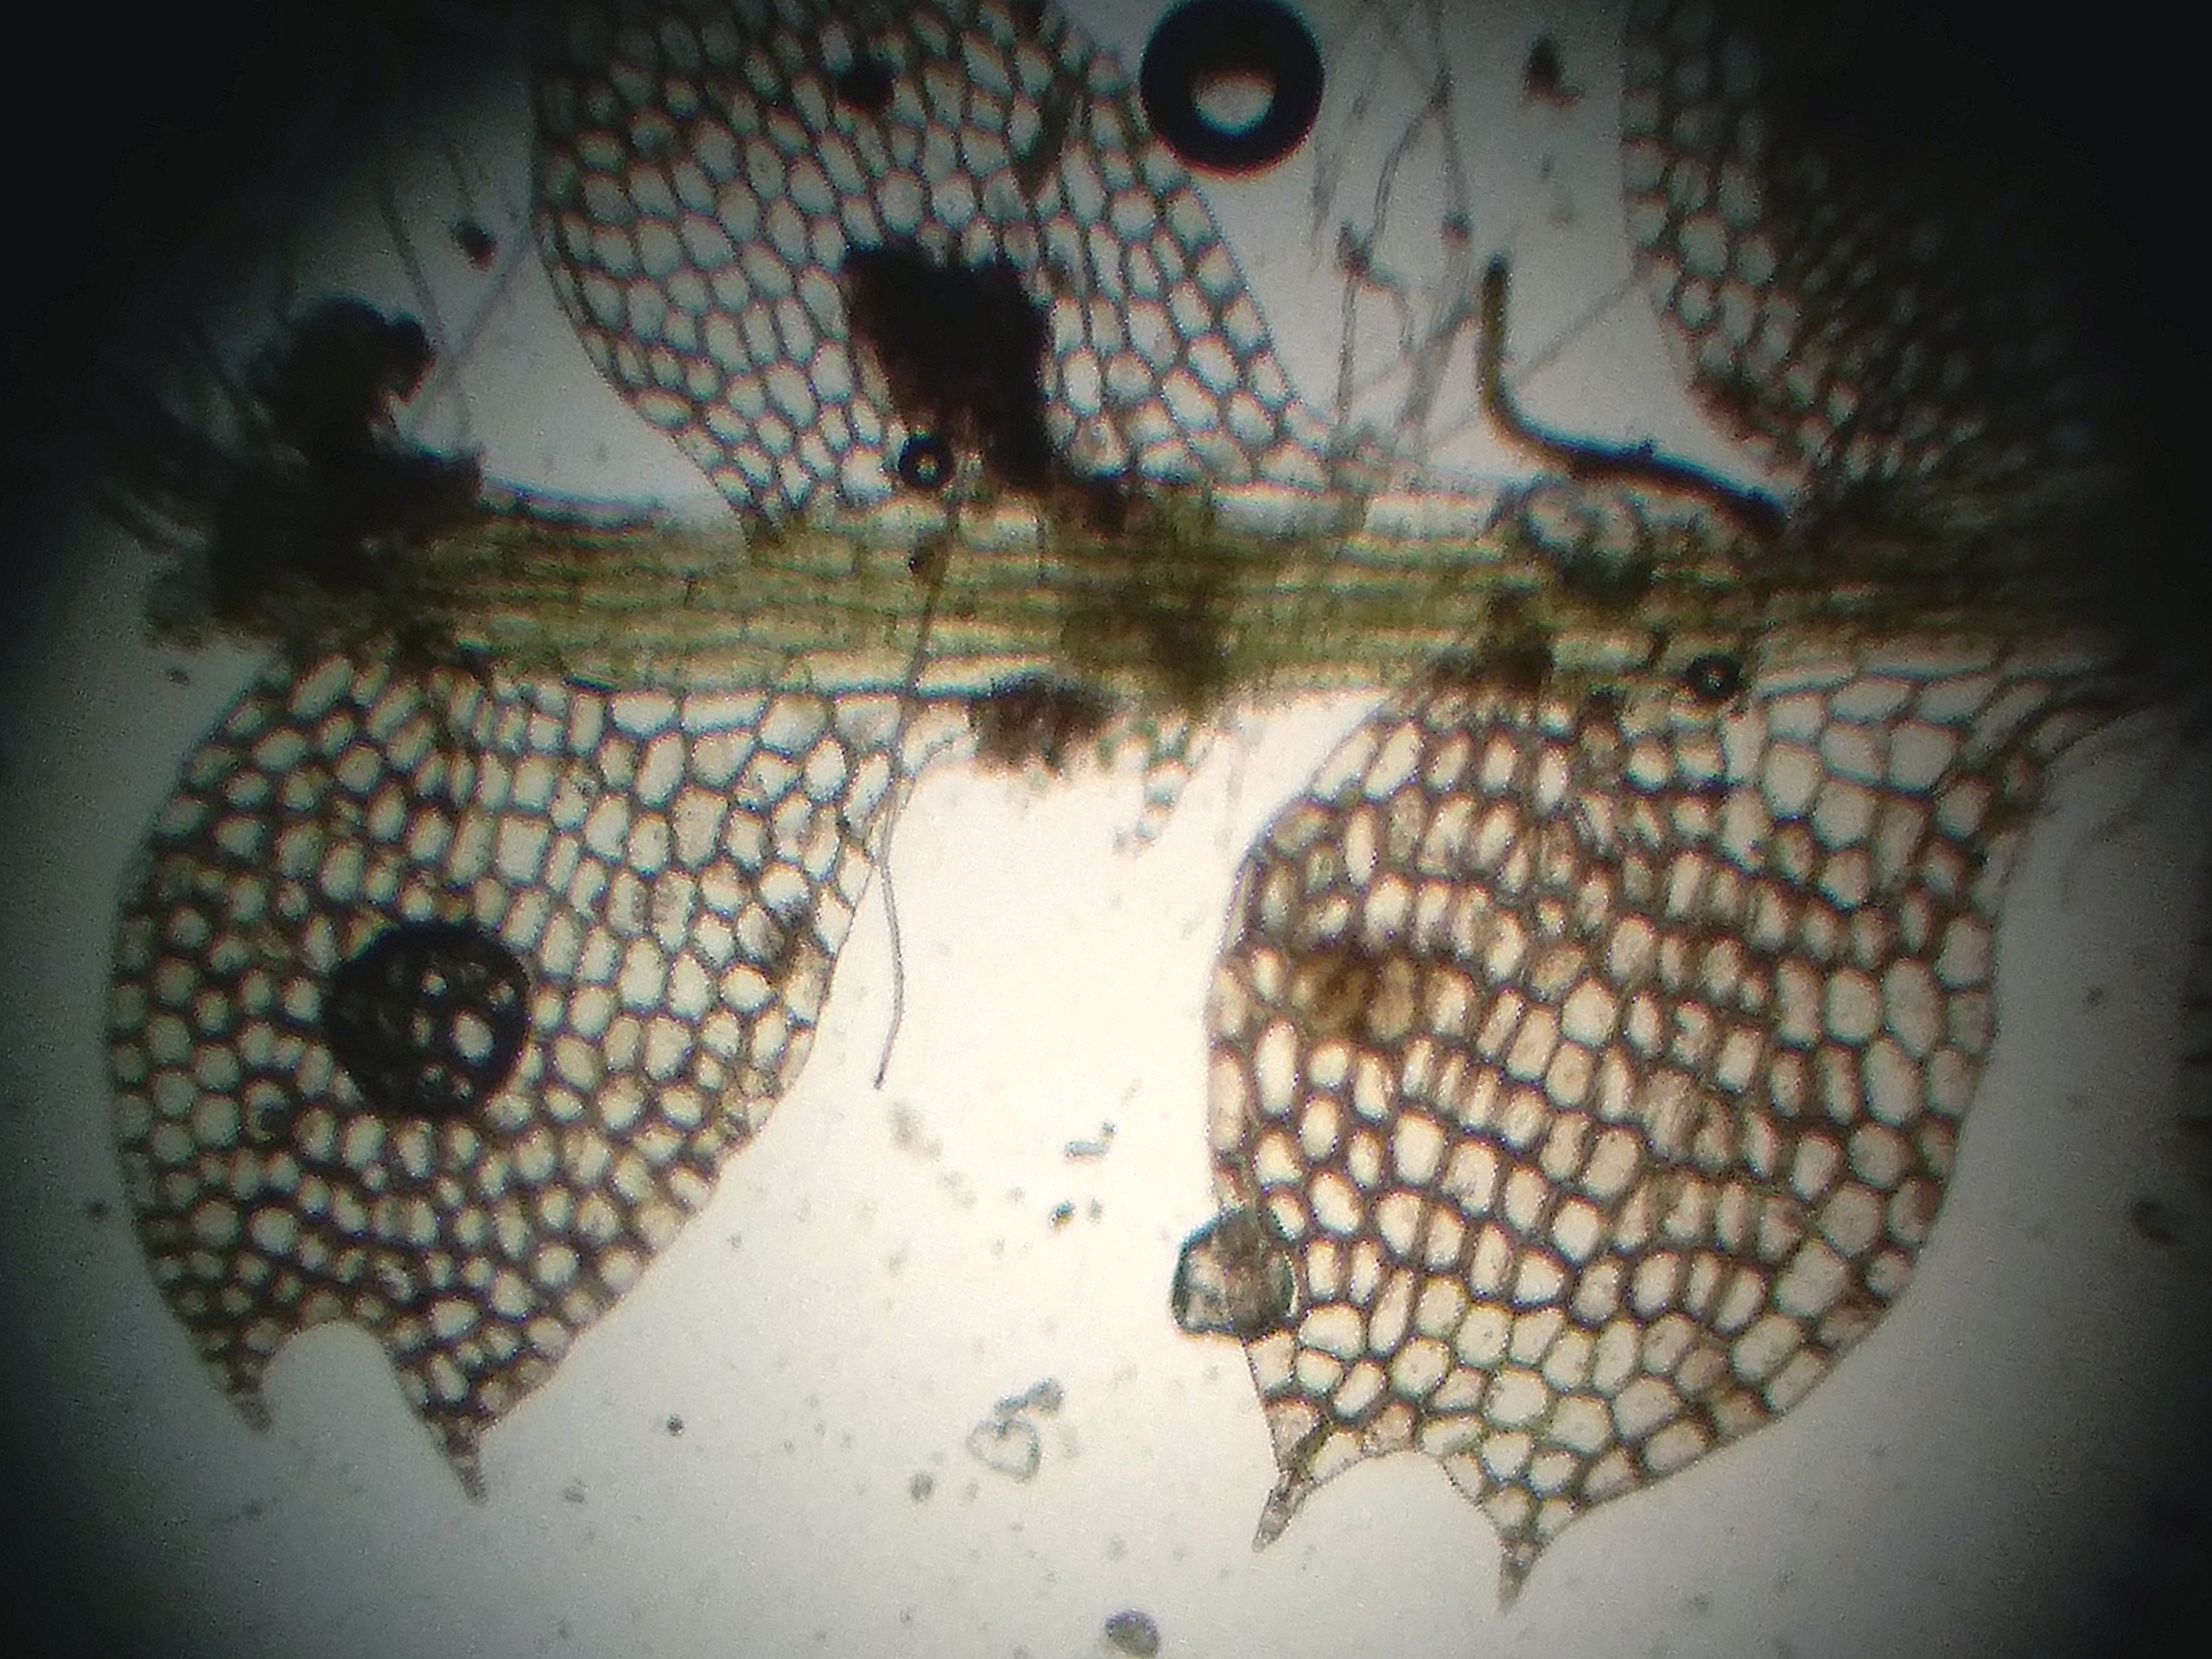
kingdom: Plantae
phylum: Marchantiophyta
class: Jungermanniopsida
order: Jungermanniales
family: Calypogeiaceae
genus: Asperifolia
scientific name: Asperifolia arguta
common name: Liden sækmos
